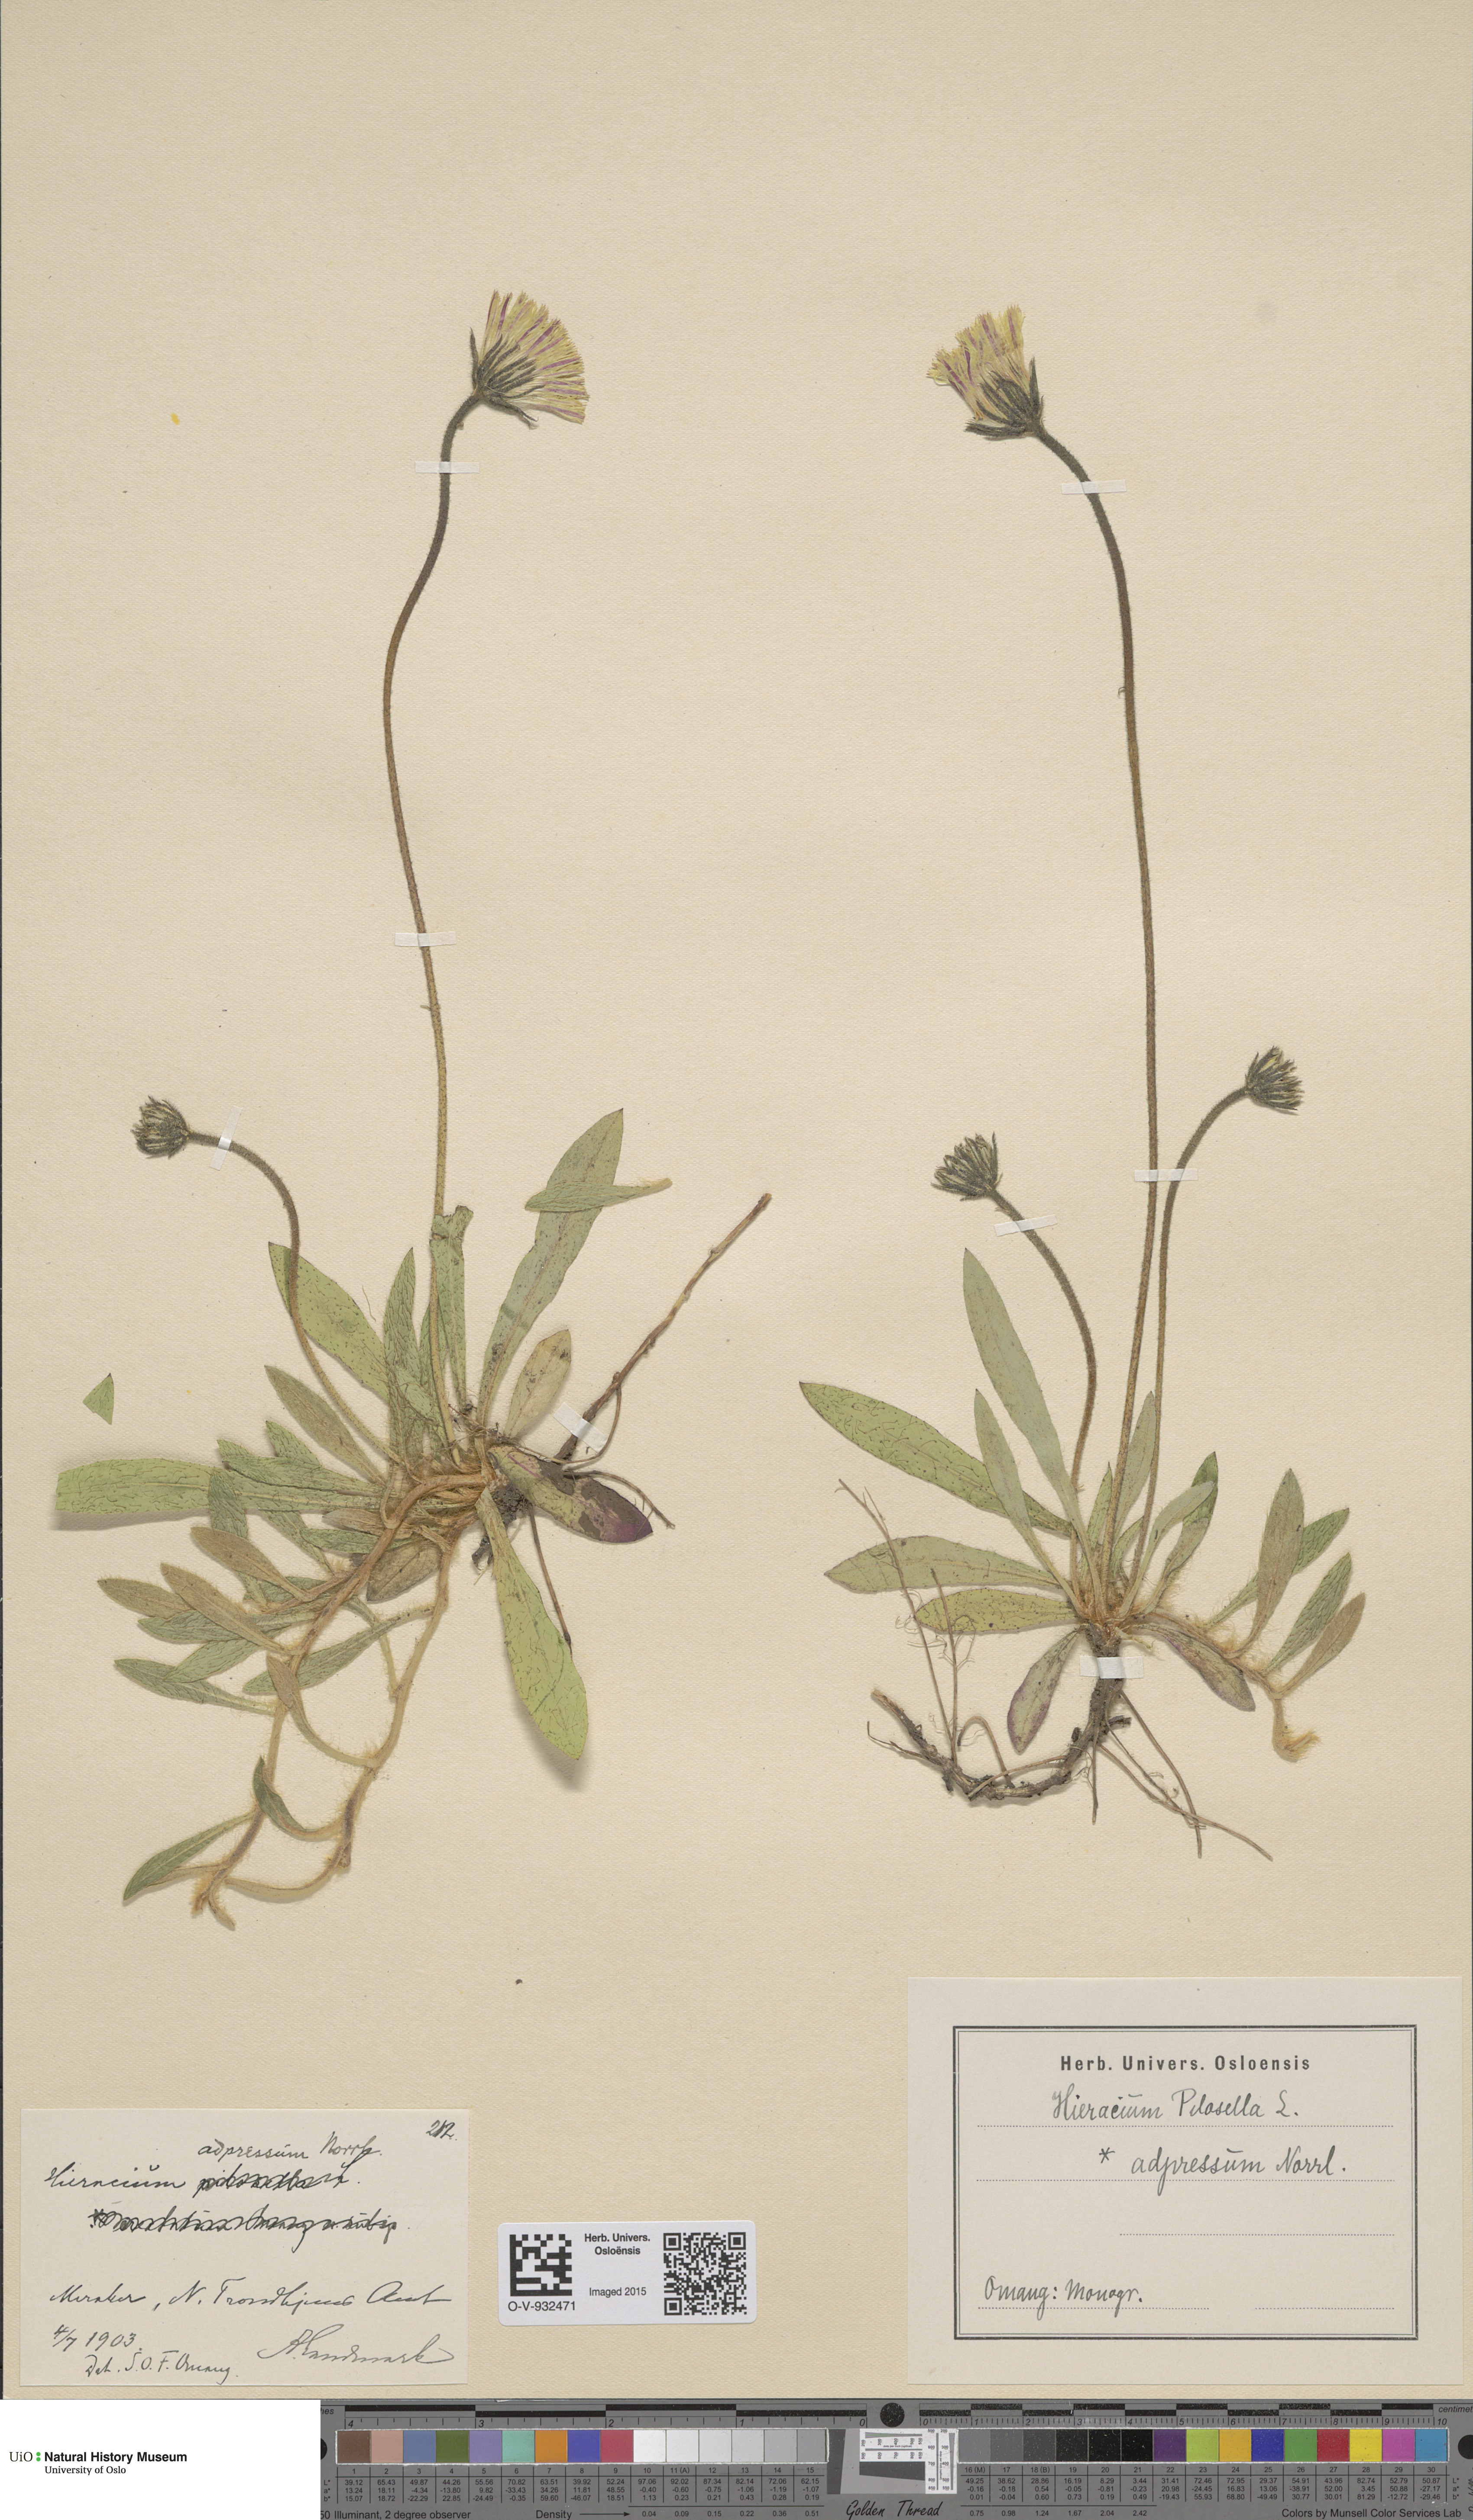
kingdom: Plantae
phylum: Tracheophyta
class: Magnoliopsida
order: Asterales
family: Asteraceae
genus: Hieracium
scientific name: Hieracium adpressum
